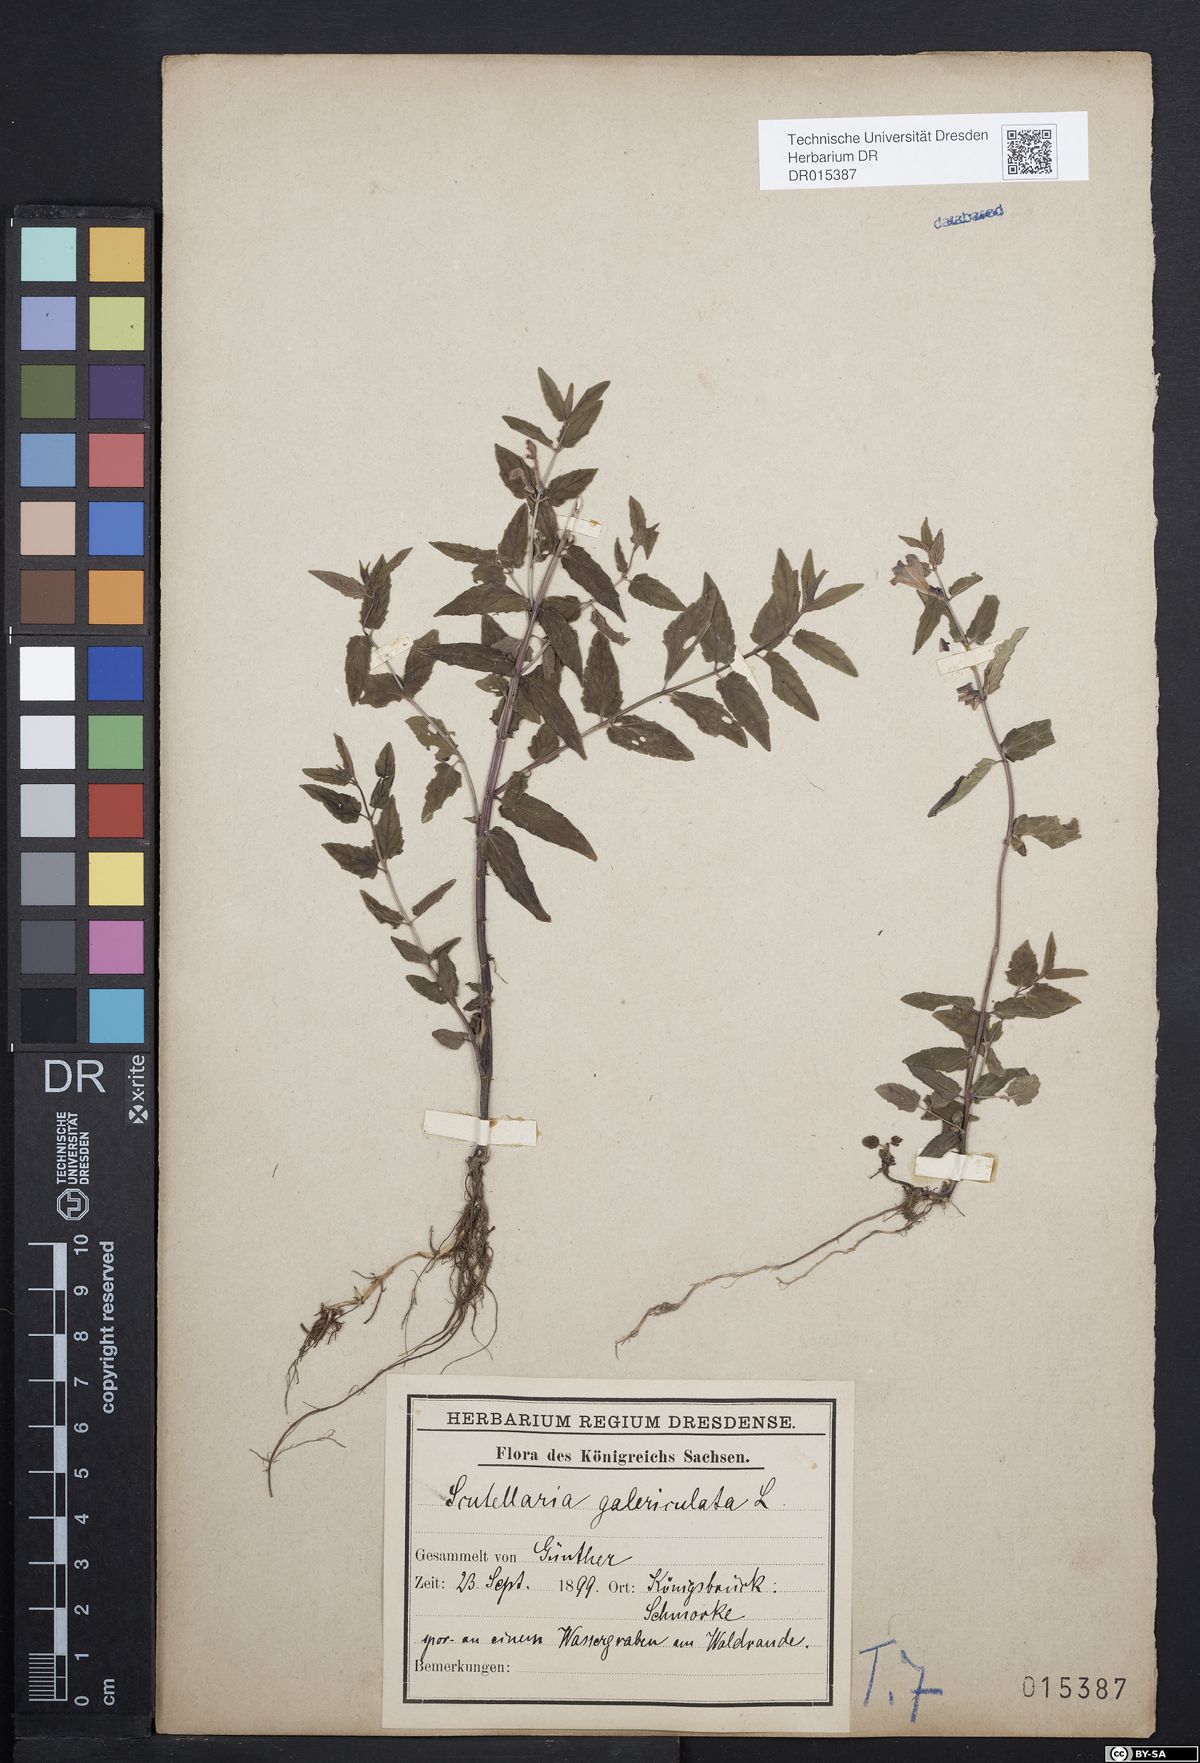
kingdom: Plantae
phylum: Tracheophyta
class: Magnoliopsida
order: Lamiales
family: Lamiaceae
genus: Scutellaria
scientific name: Scutellaria galericulata
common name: Skullcap
